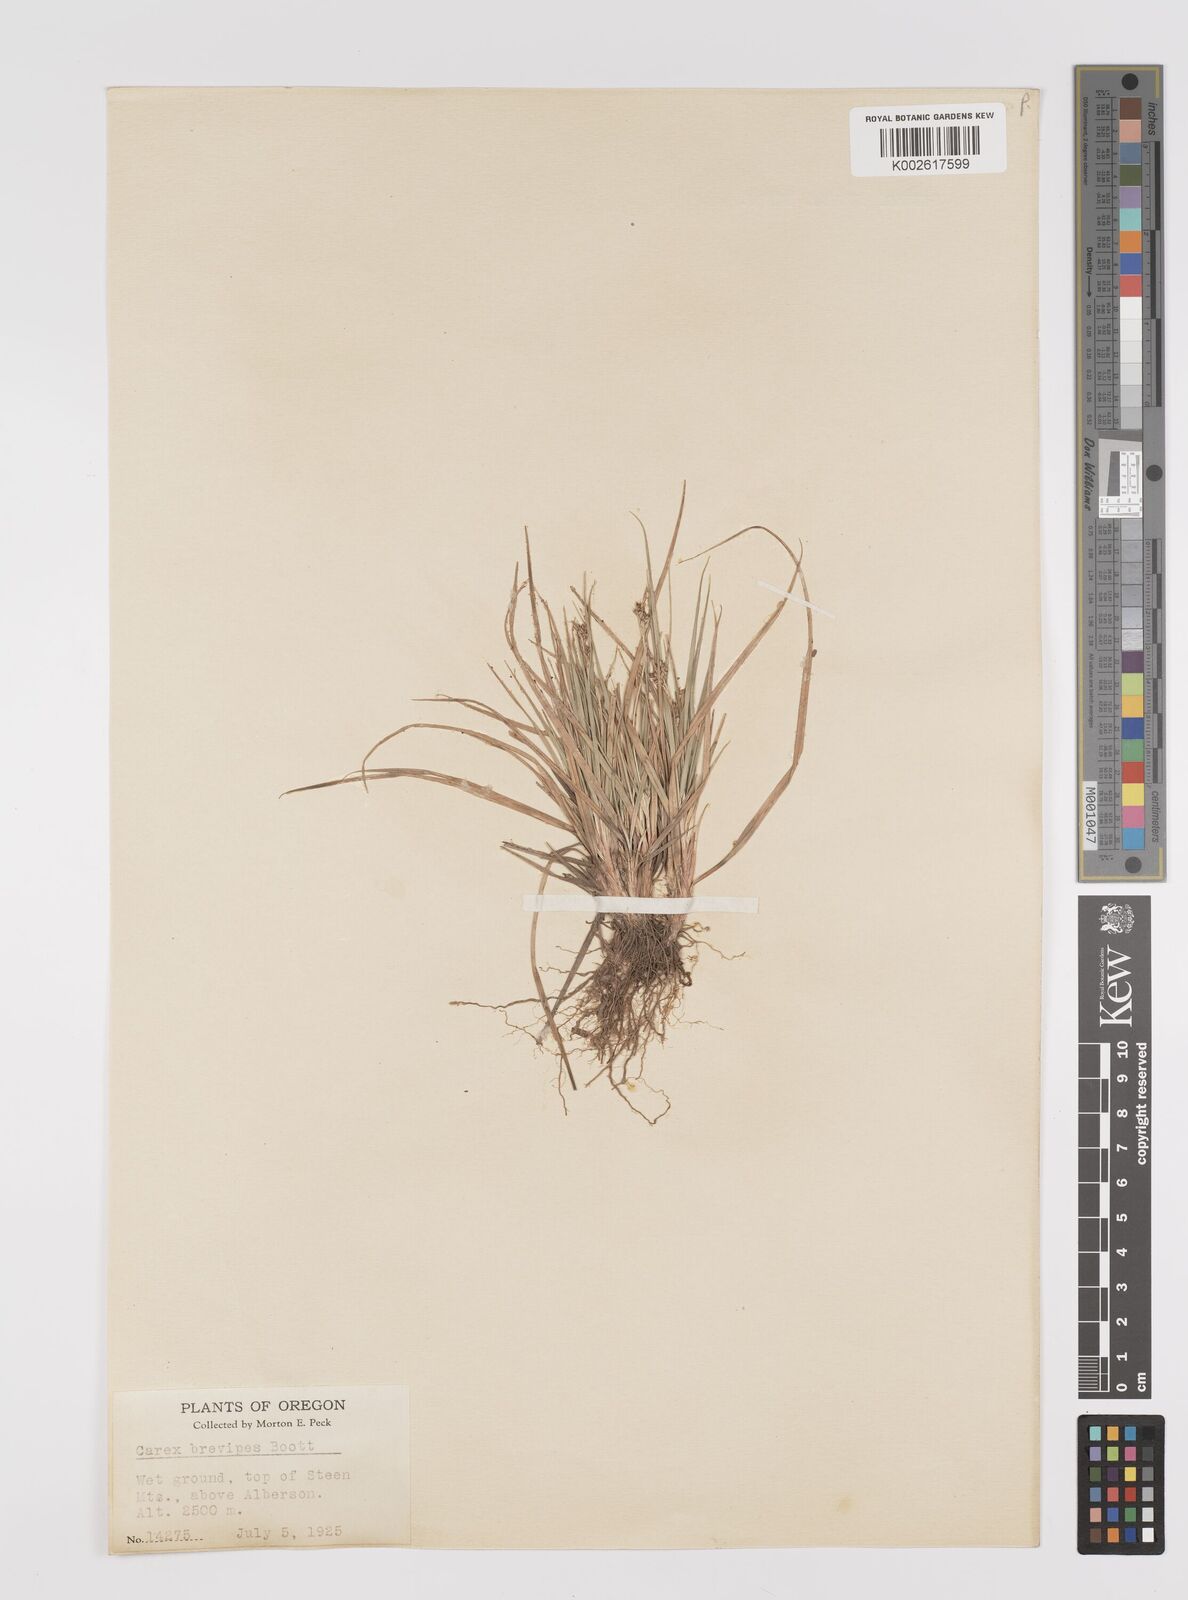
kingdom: Plantae
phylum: Tracheophyta
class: Liliopsida
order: Poales
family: Cyperaceae
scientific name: Cyperaceae
